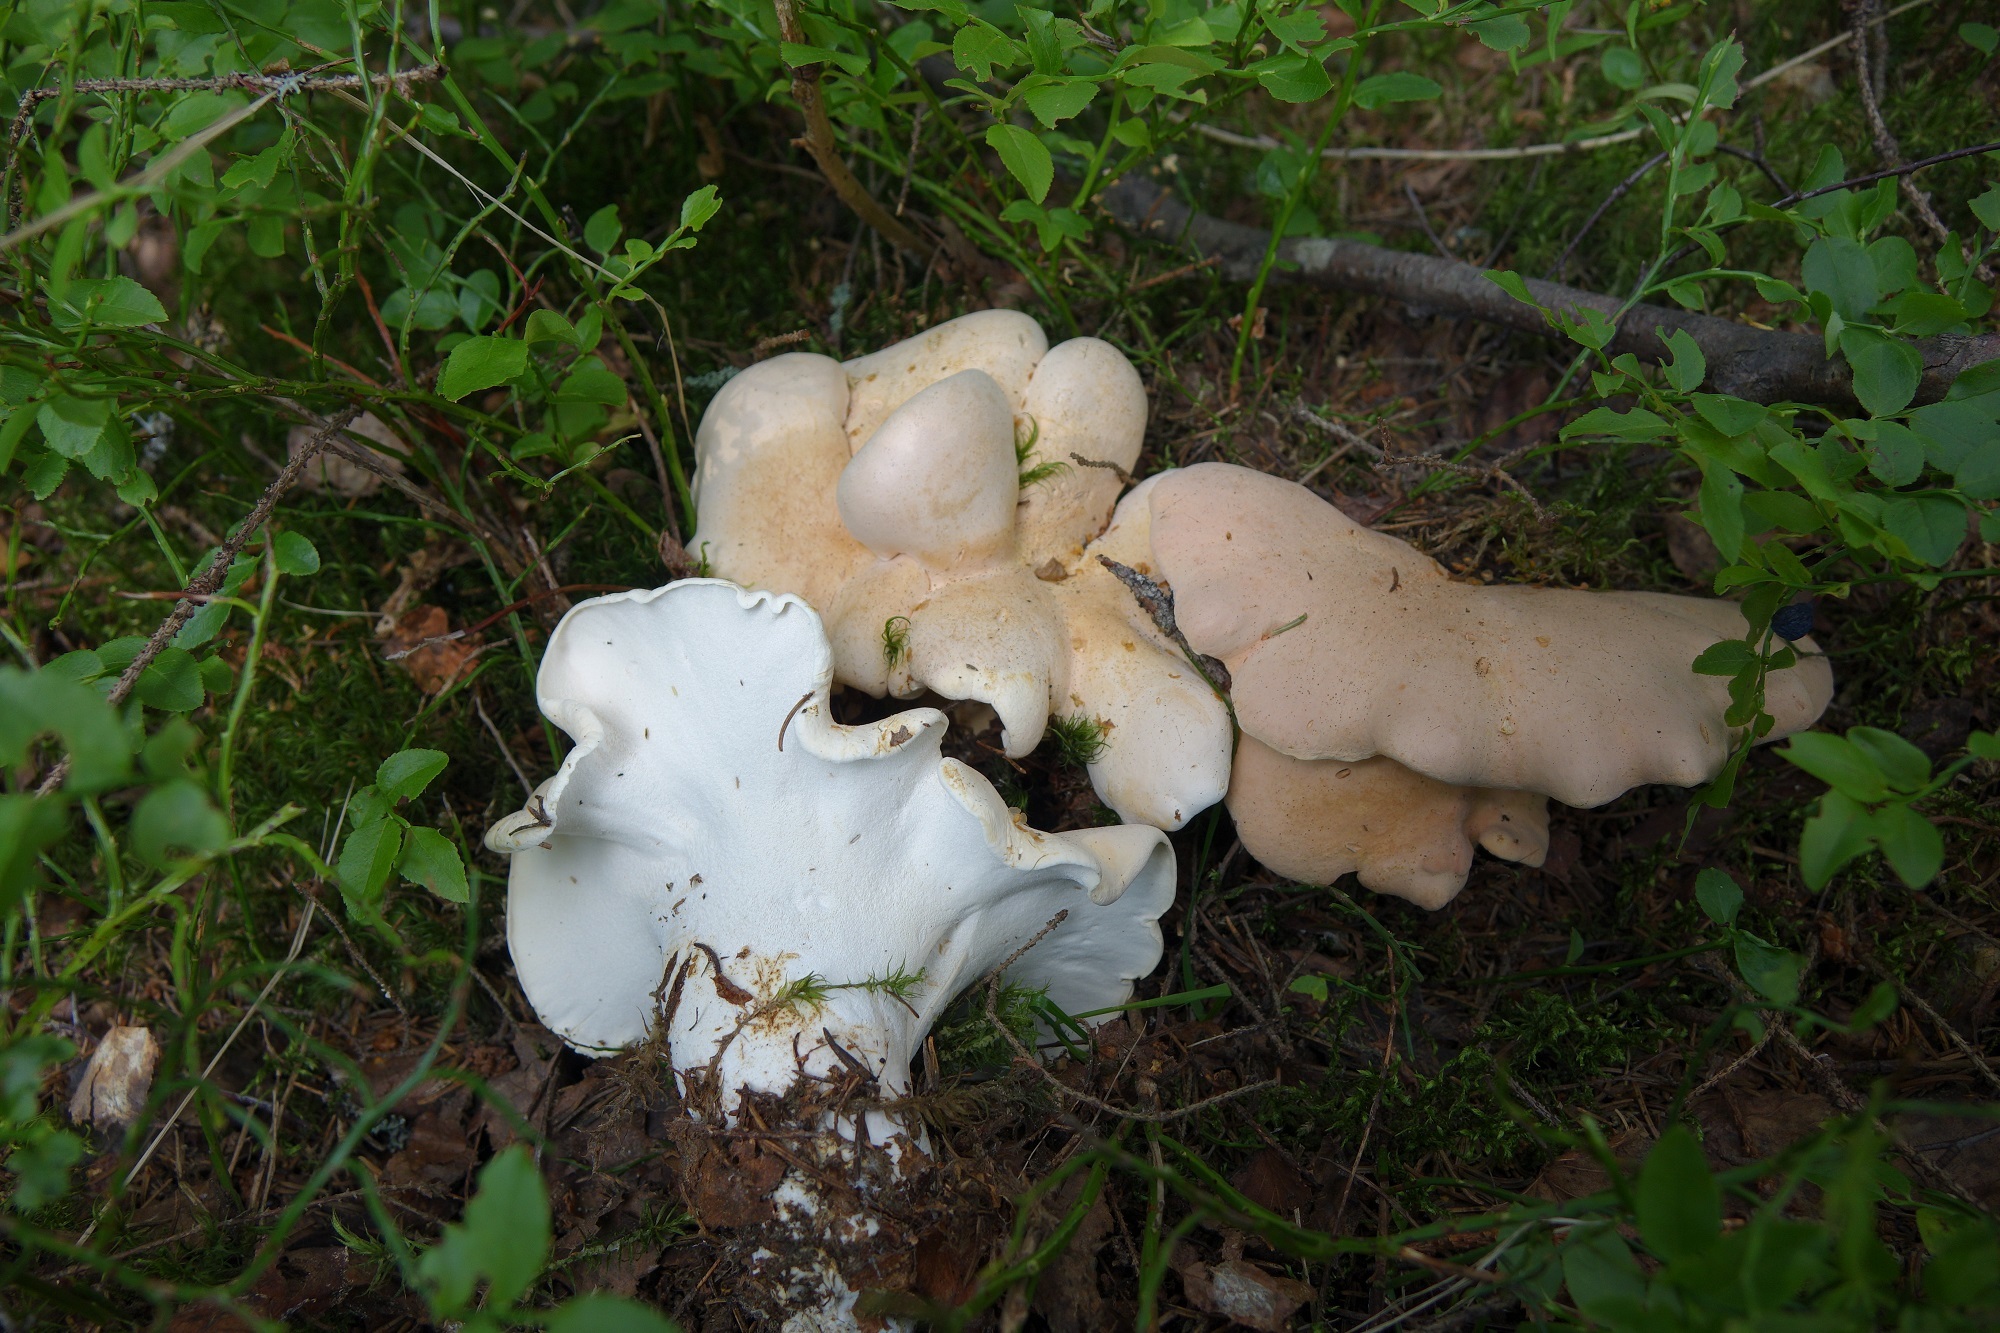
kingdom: Fungi
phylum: Basidiomycota
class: Agaricomycetes
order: Russulales
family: Albatrellaceae
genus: Albatrellopsis
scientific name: Albatrellopsis confluens
